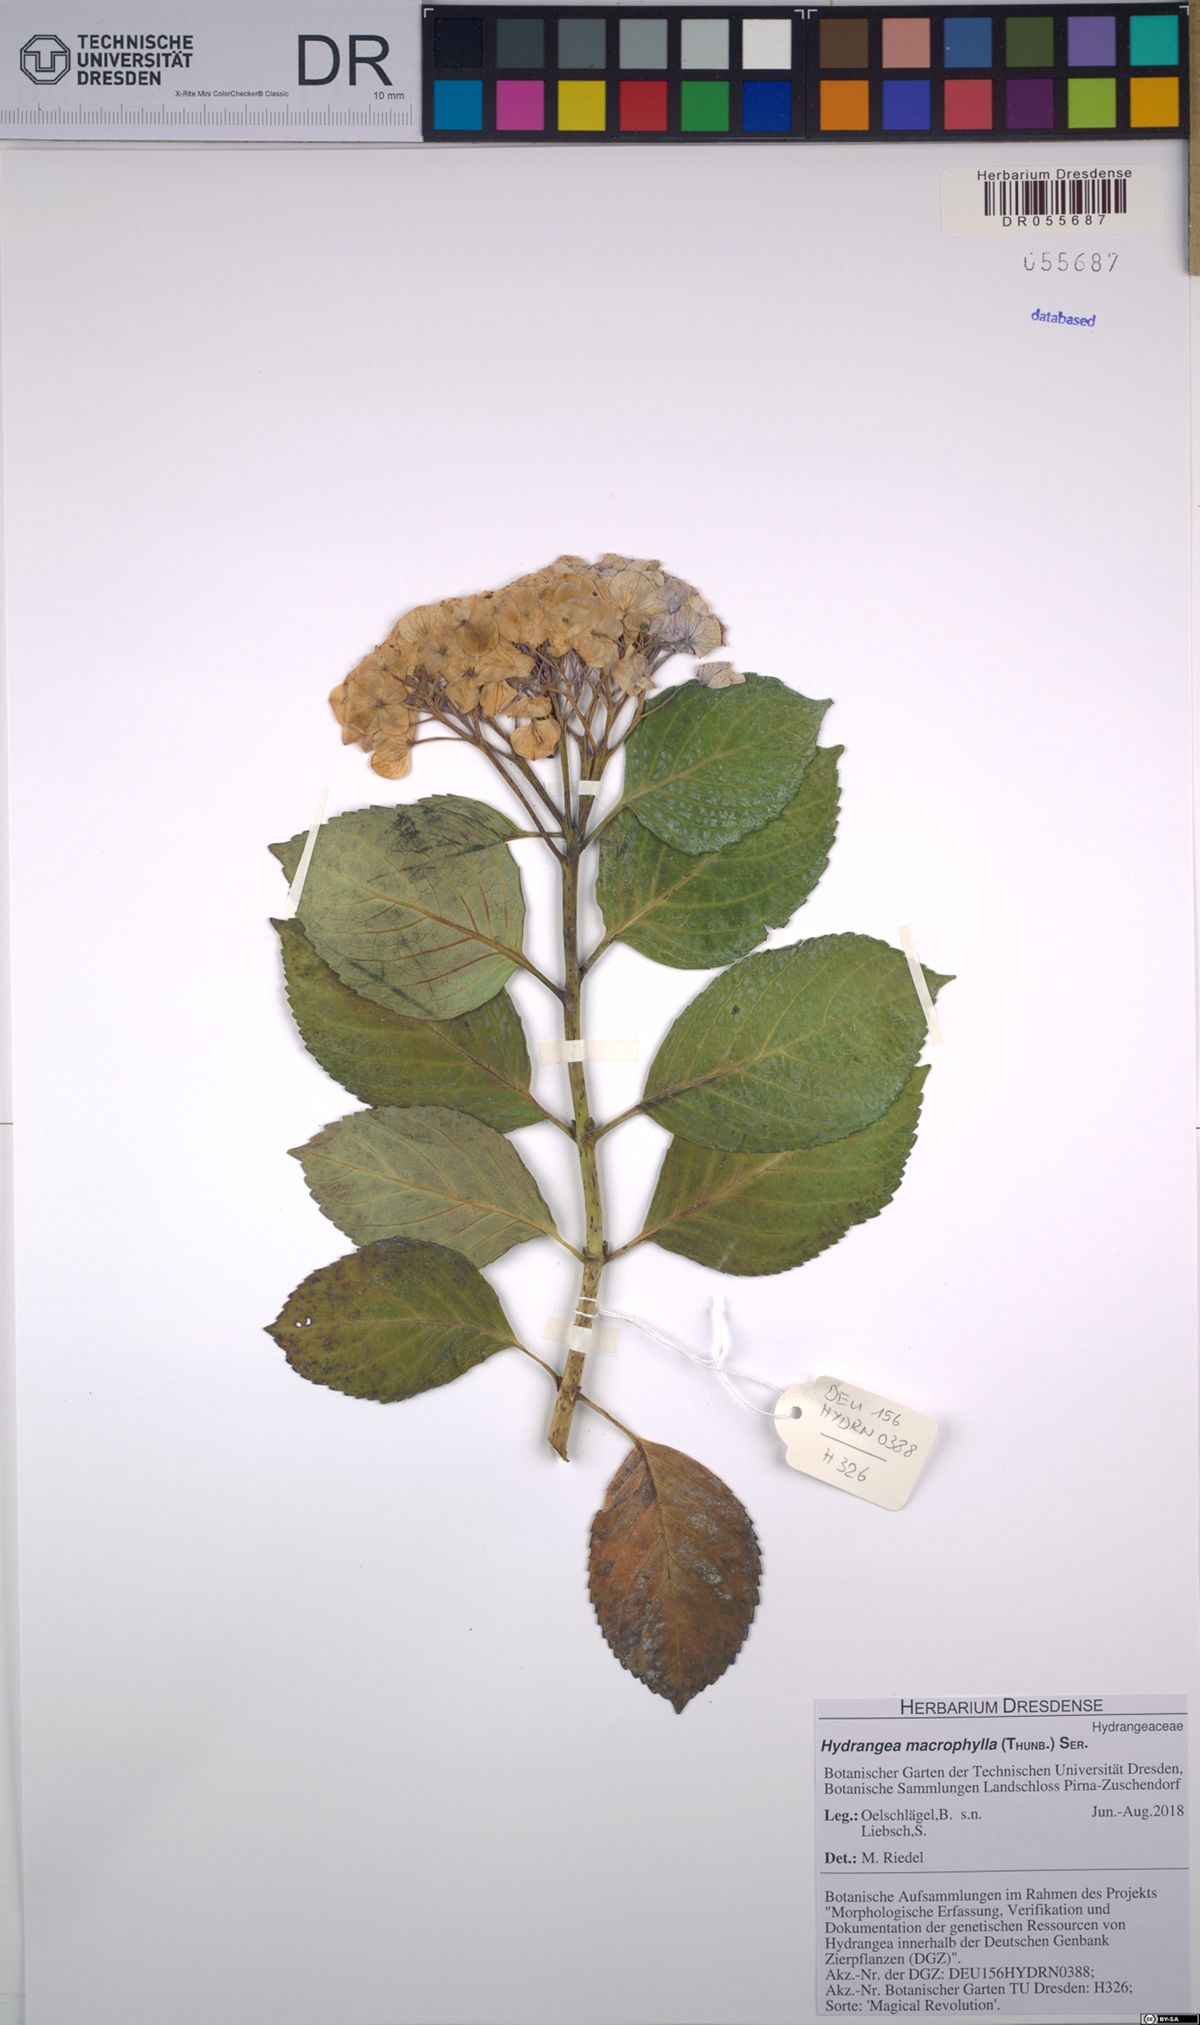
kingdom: Plantae
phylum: Tracheophyta
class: Magnoliopsida
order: Cornales
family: Hydrangeaceae
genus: Hydrangea
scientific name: Hydrangea macrophylla
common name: Hydrangea
